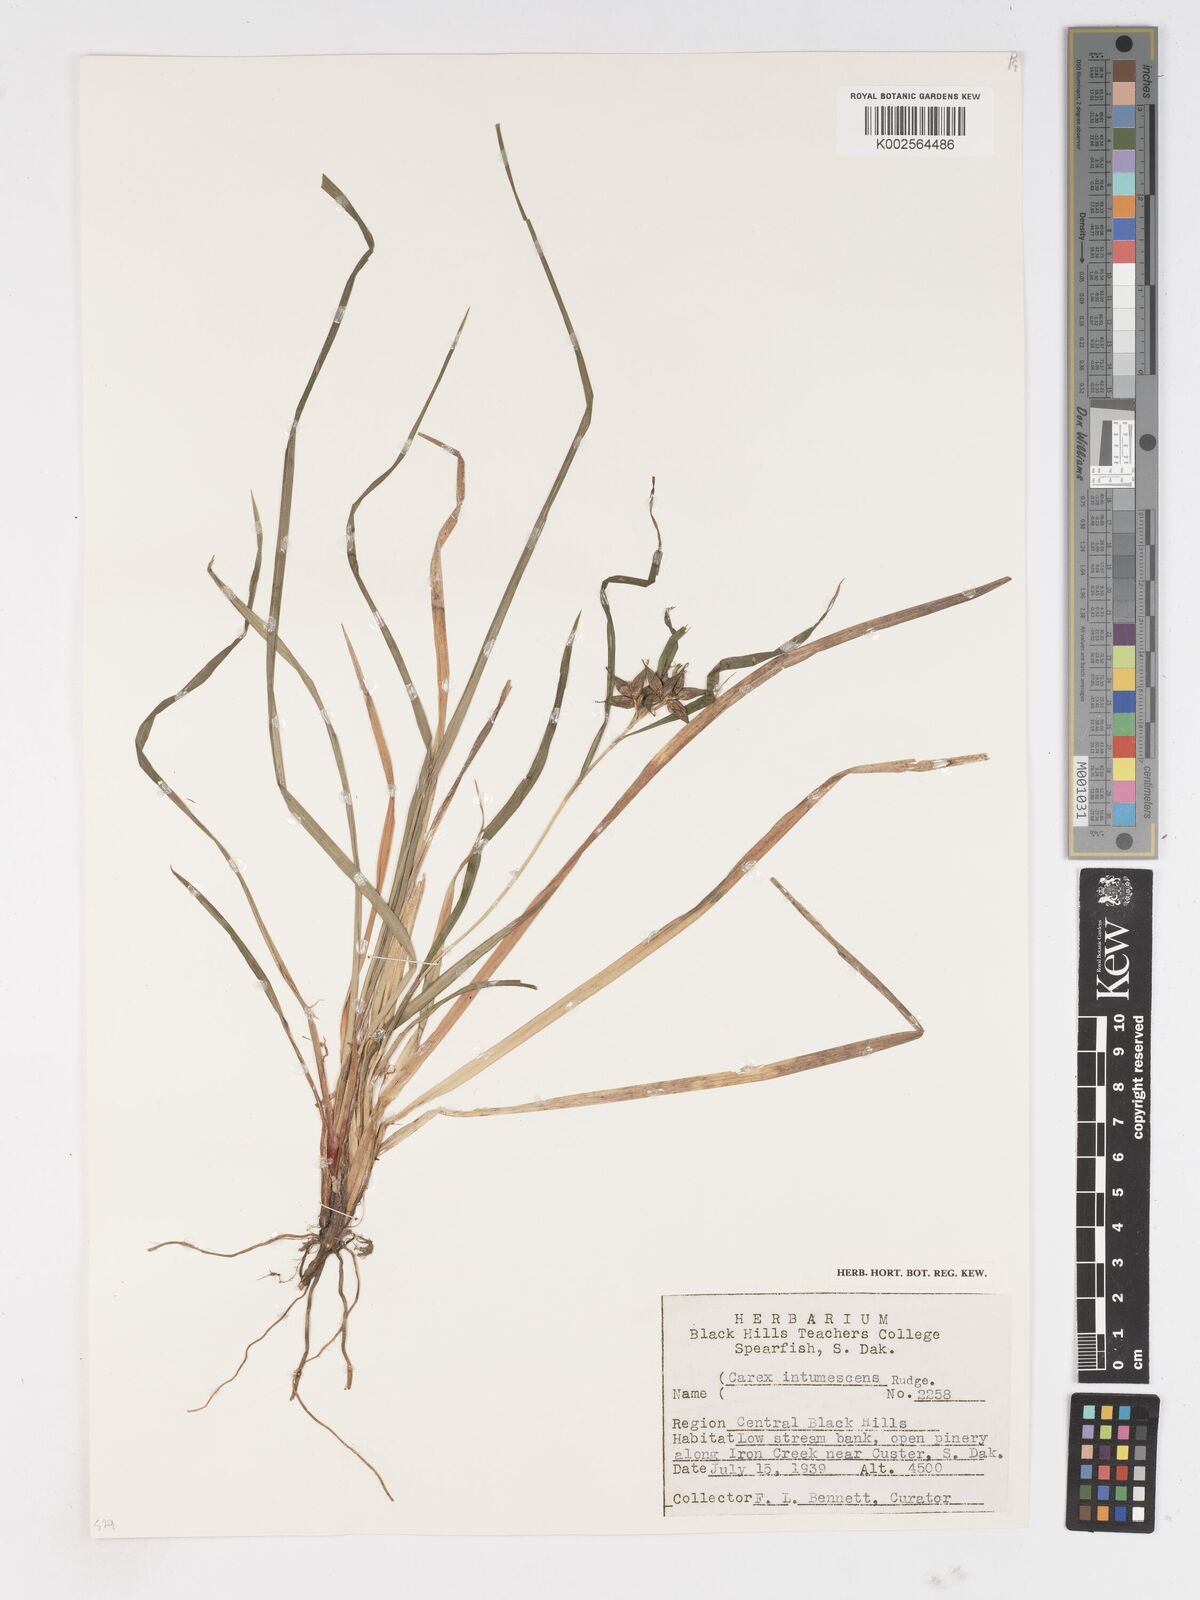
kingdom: Plantae
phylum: Tracheophyta
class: Liliopsida
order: Poales
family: Cyperaceae
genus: Carex
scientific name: Carex intumescens
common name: Greater bladder sedge
